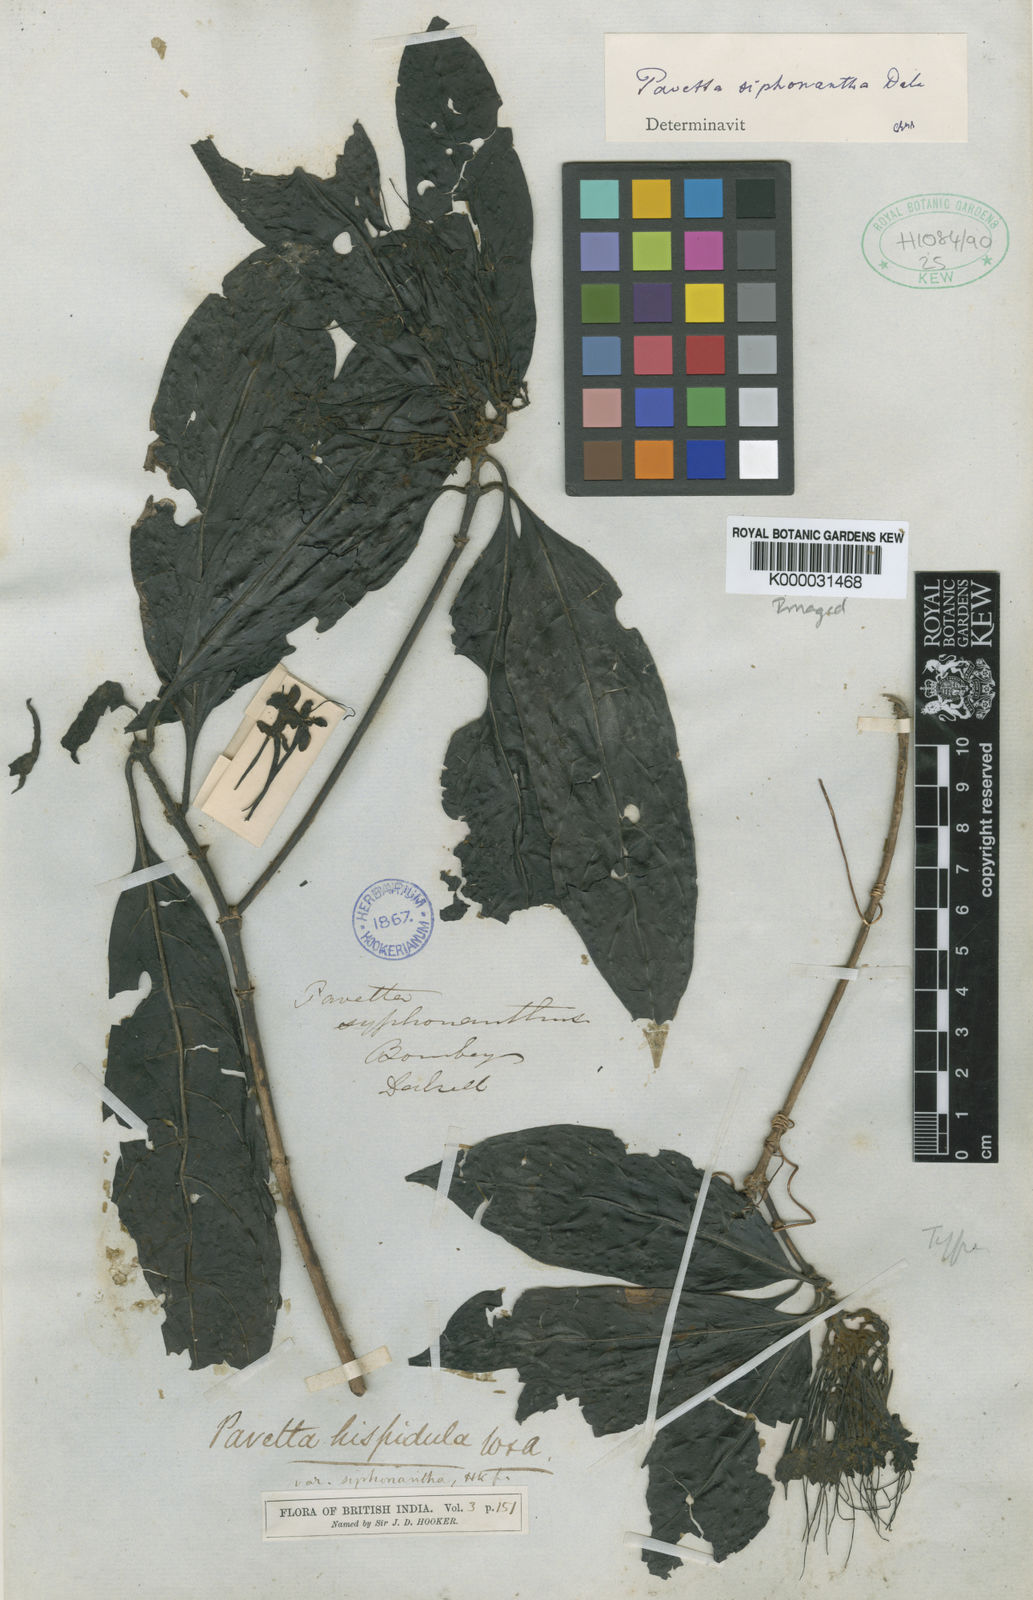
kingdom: Plantae
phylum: Tracheophyta
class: Magnoliopsida
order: Gentianales
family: Rubiaceae
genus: Pavetta
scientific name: Pavetta siphonantha
